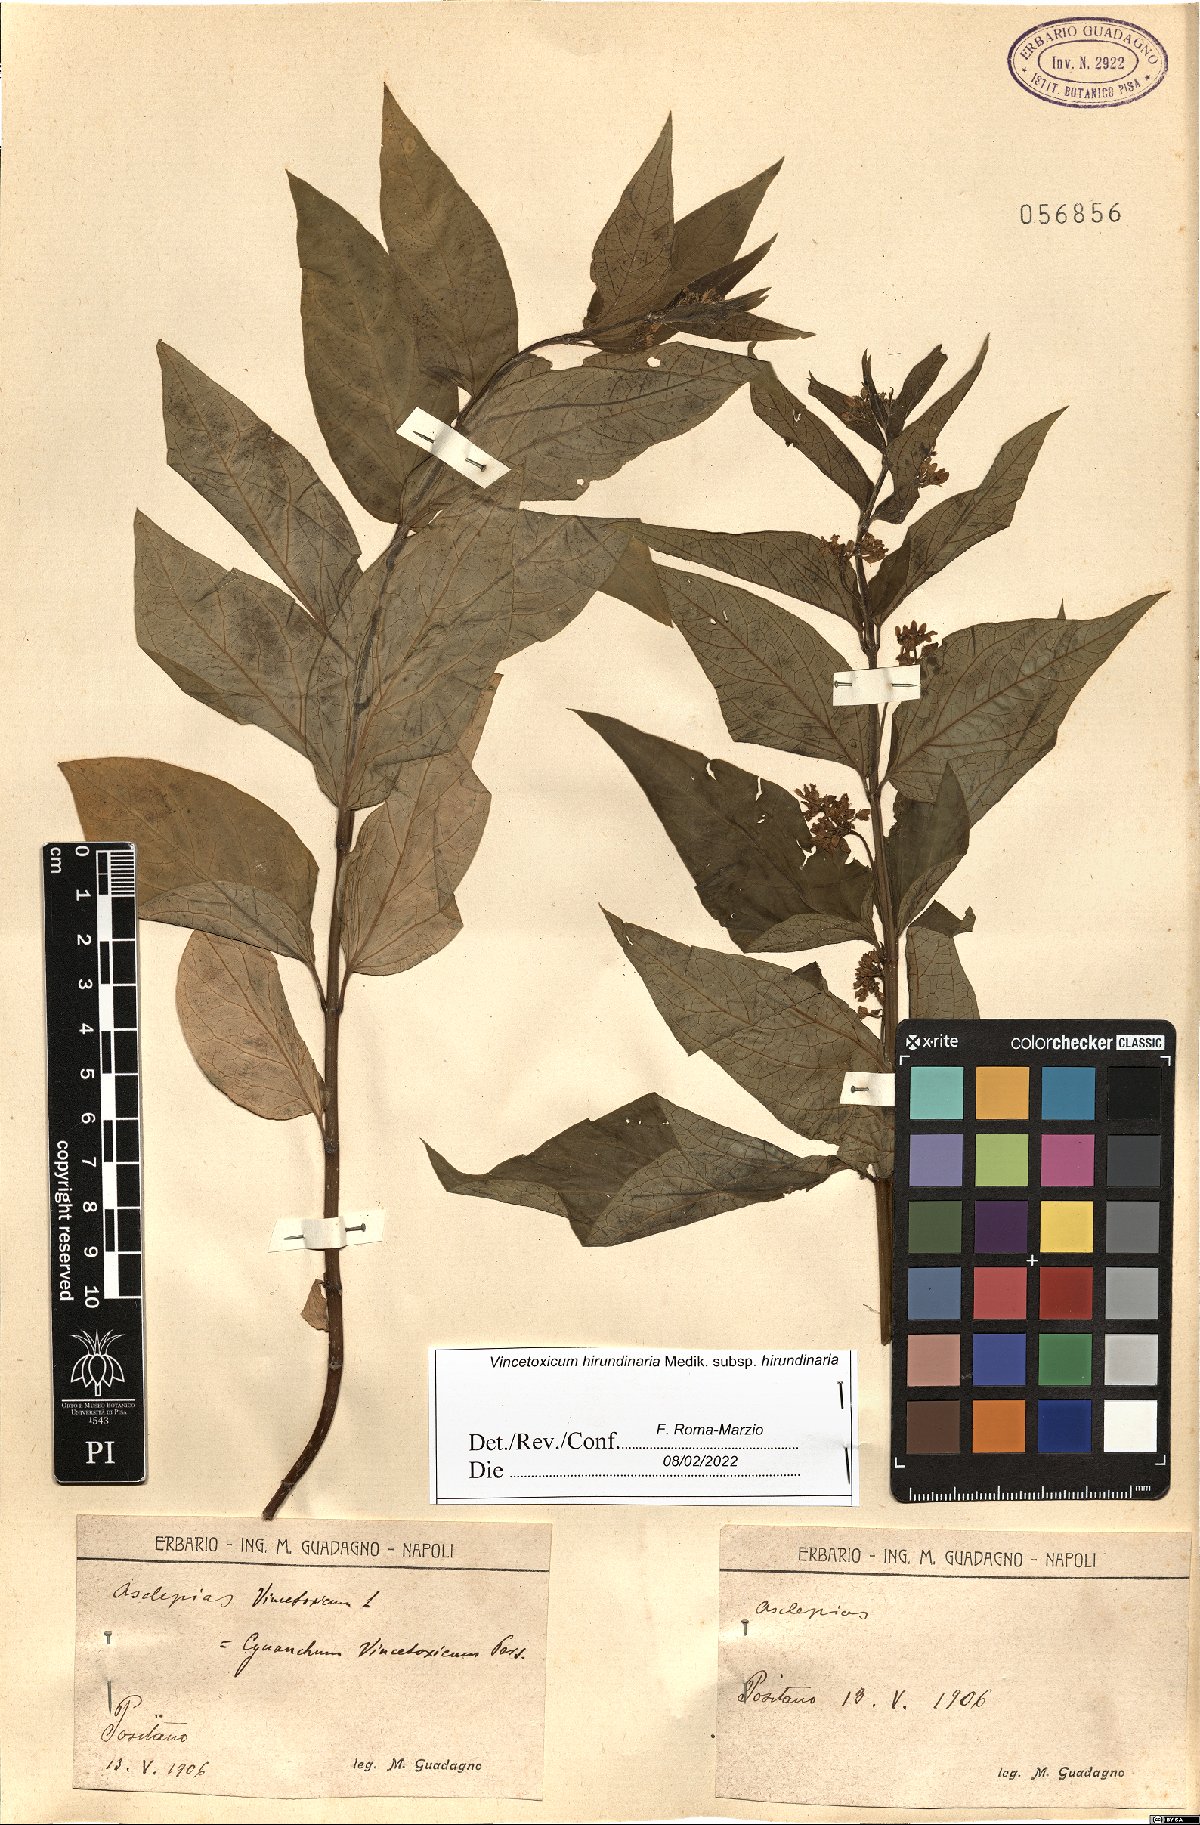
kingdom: Plantae
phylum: Tracheophyta
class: Magnoliopsida
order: Gentianales
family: Apocynaceae
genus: Vincetoxicum
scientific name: Vincetoxicum hirundinaria
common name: White swallowwort
